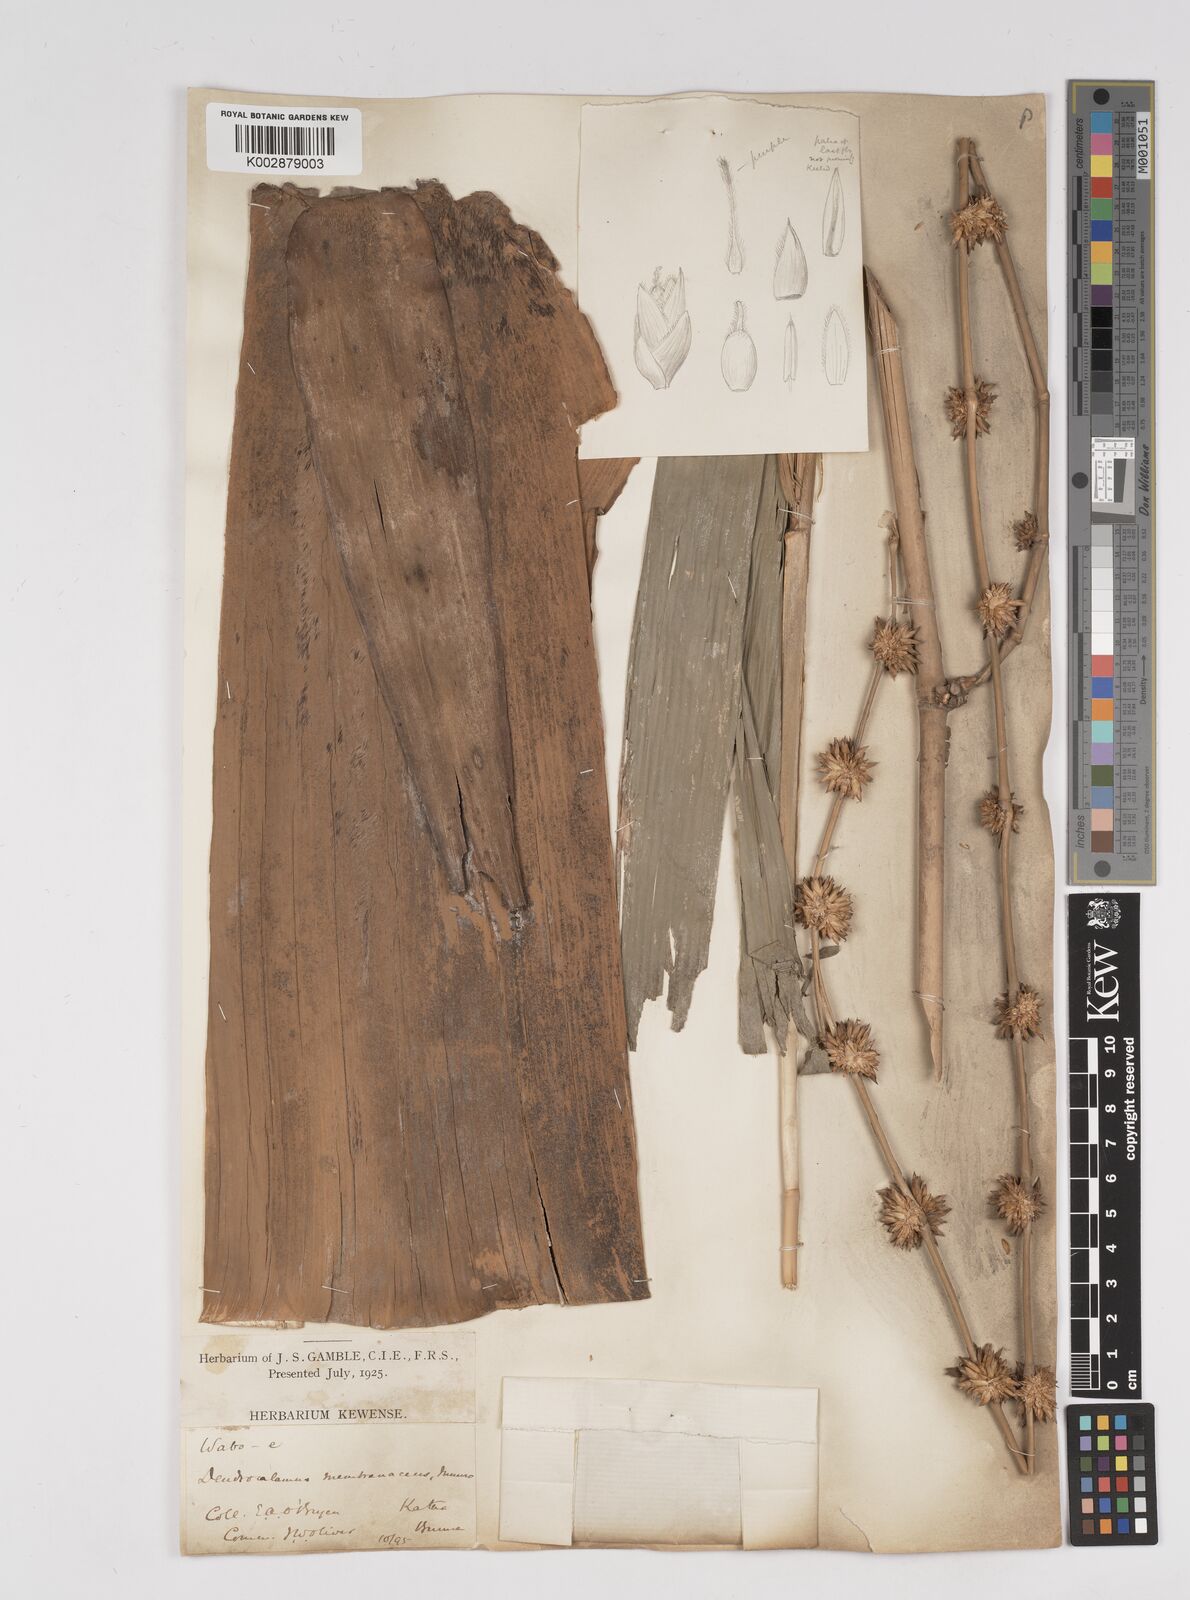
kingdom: Plantae
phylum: Tracheophyta
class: Liliopsida
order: Poales
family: Poaceae
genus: Dendrocalamus
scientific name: Dendrocalamus membranaceus
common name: White bamboo
